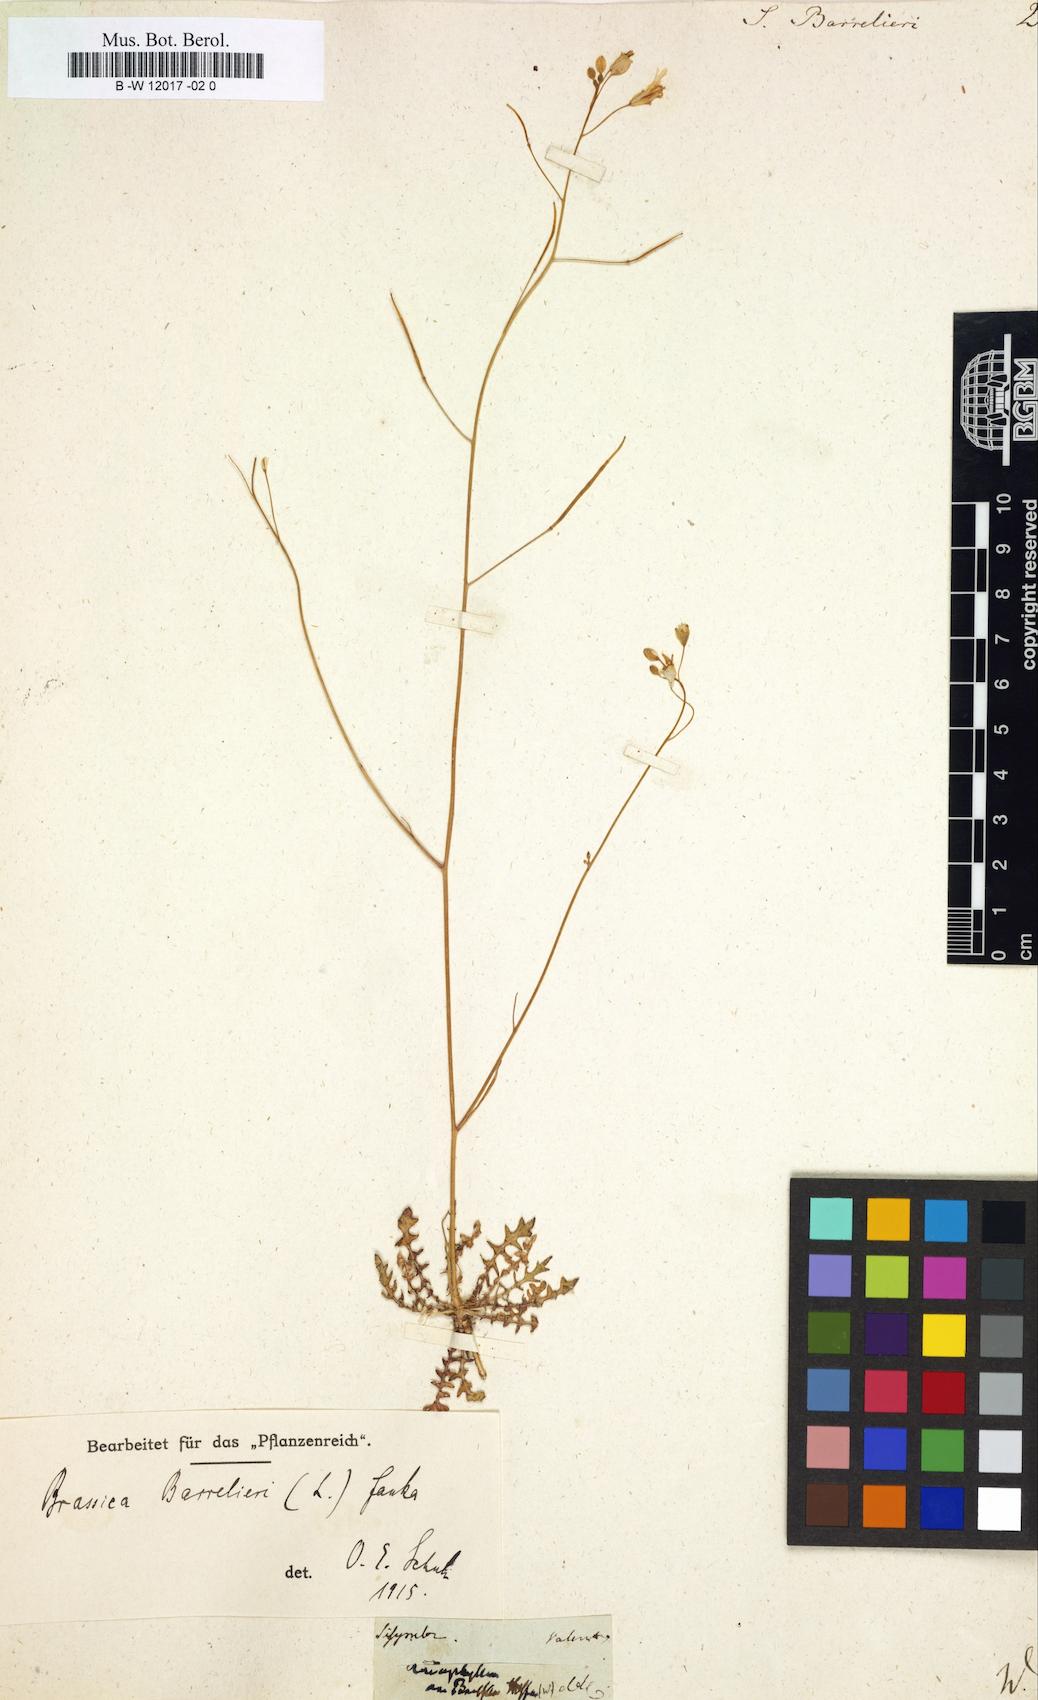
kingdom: Plantae
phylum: Tracheophyta
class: Magnoliopsida
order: Brassicales
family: Brassicaceae
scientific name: Brassicaceae
